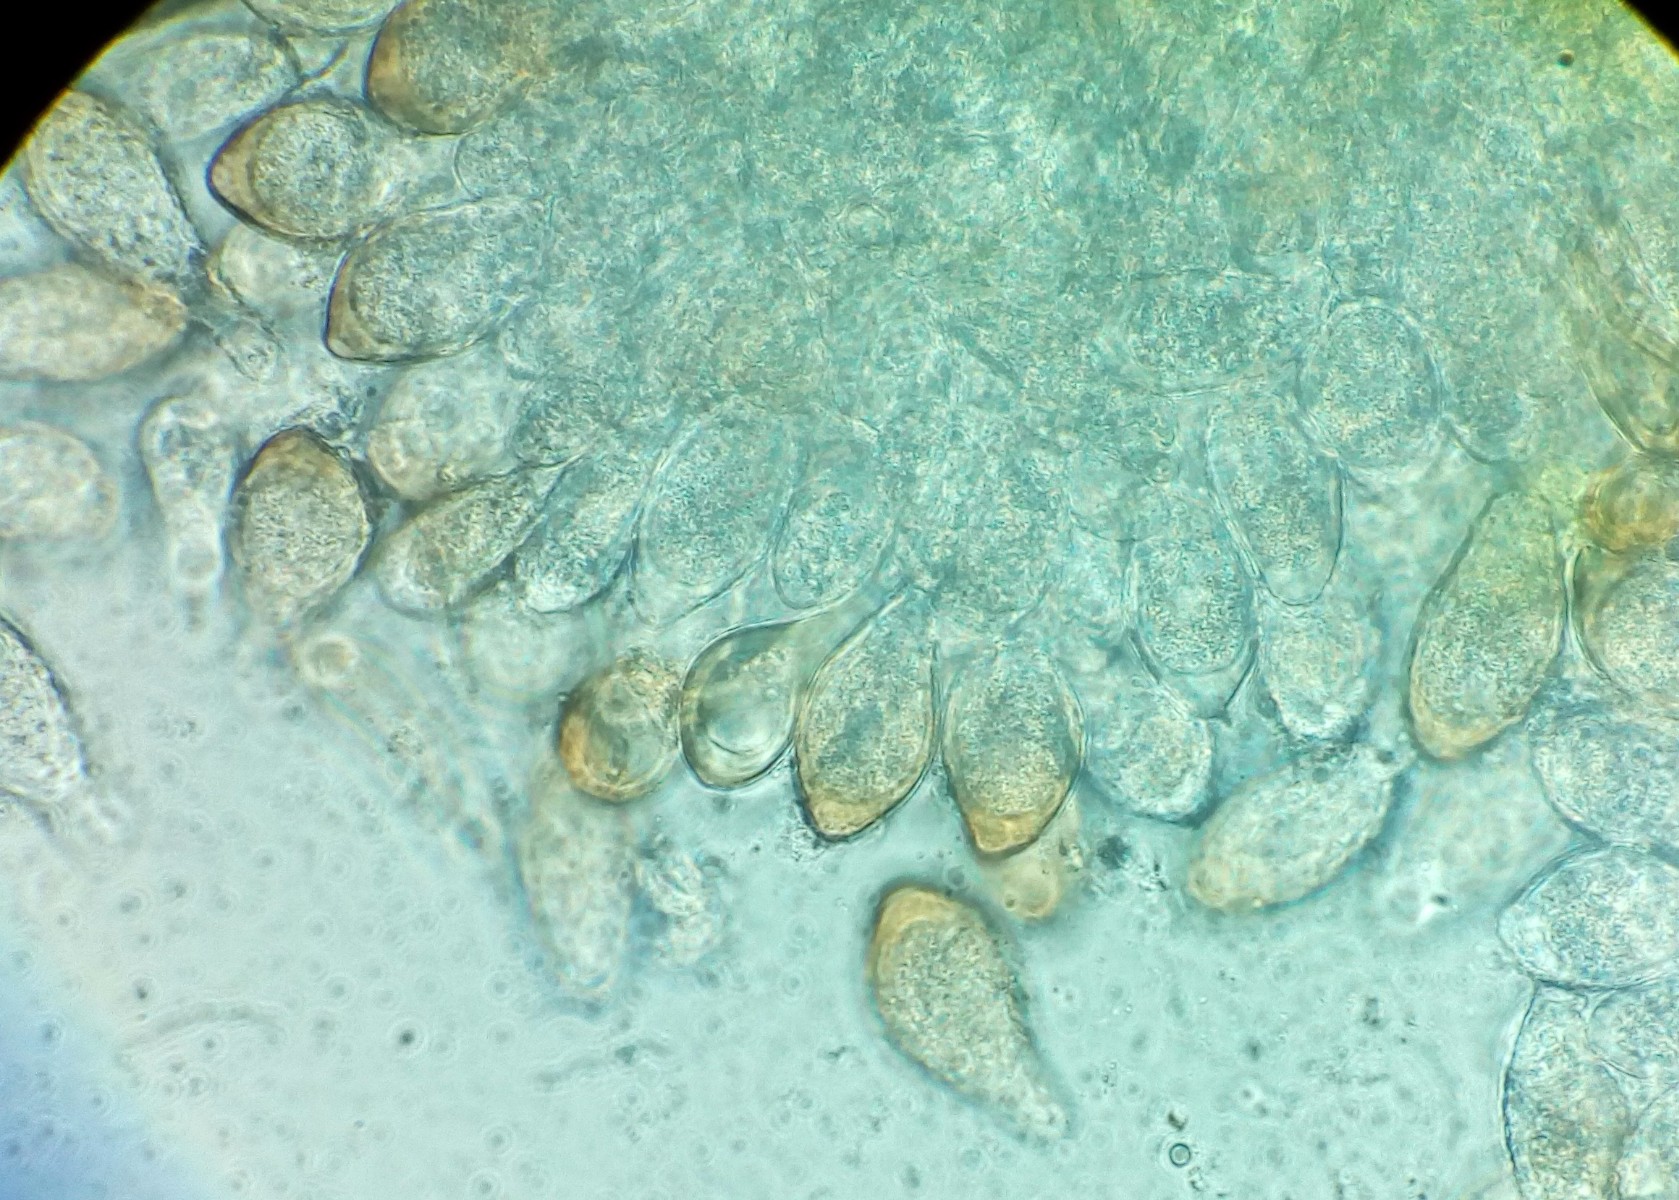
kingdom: Fungi
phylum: Basidiomycota
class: Pucciniomycetes
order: Pucciniales
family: Tranzscheliaceae
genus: Tranzschelia
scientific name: Tranzschelia pruni-spinosae
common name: Blackthorn rust
